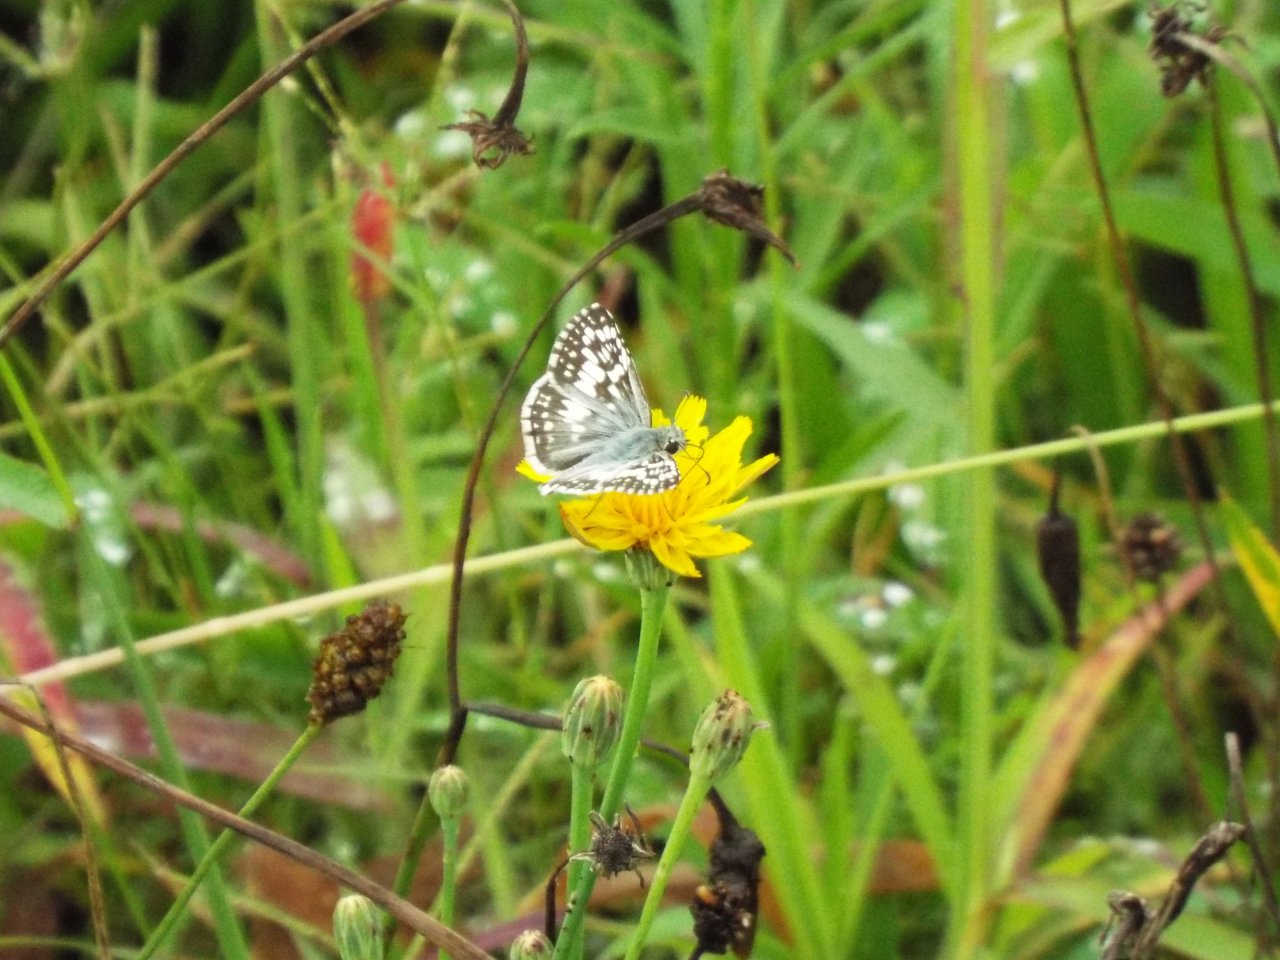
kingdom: Animalia
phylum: Arthropoda
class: Insecta
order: Lepidoptera
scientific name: Lepidoptera
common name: Butterflies
